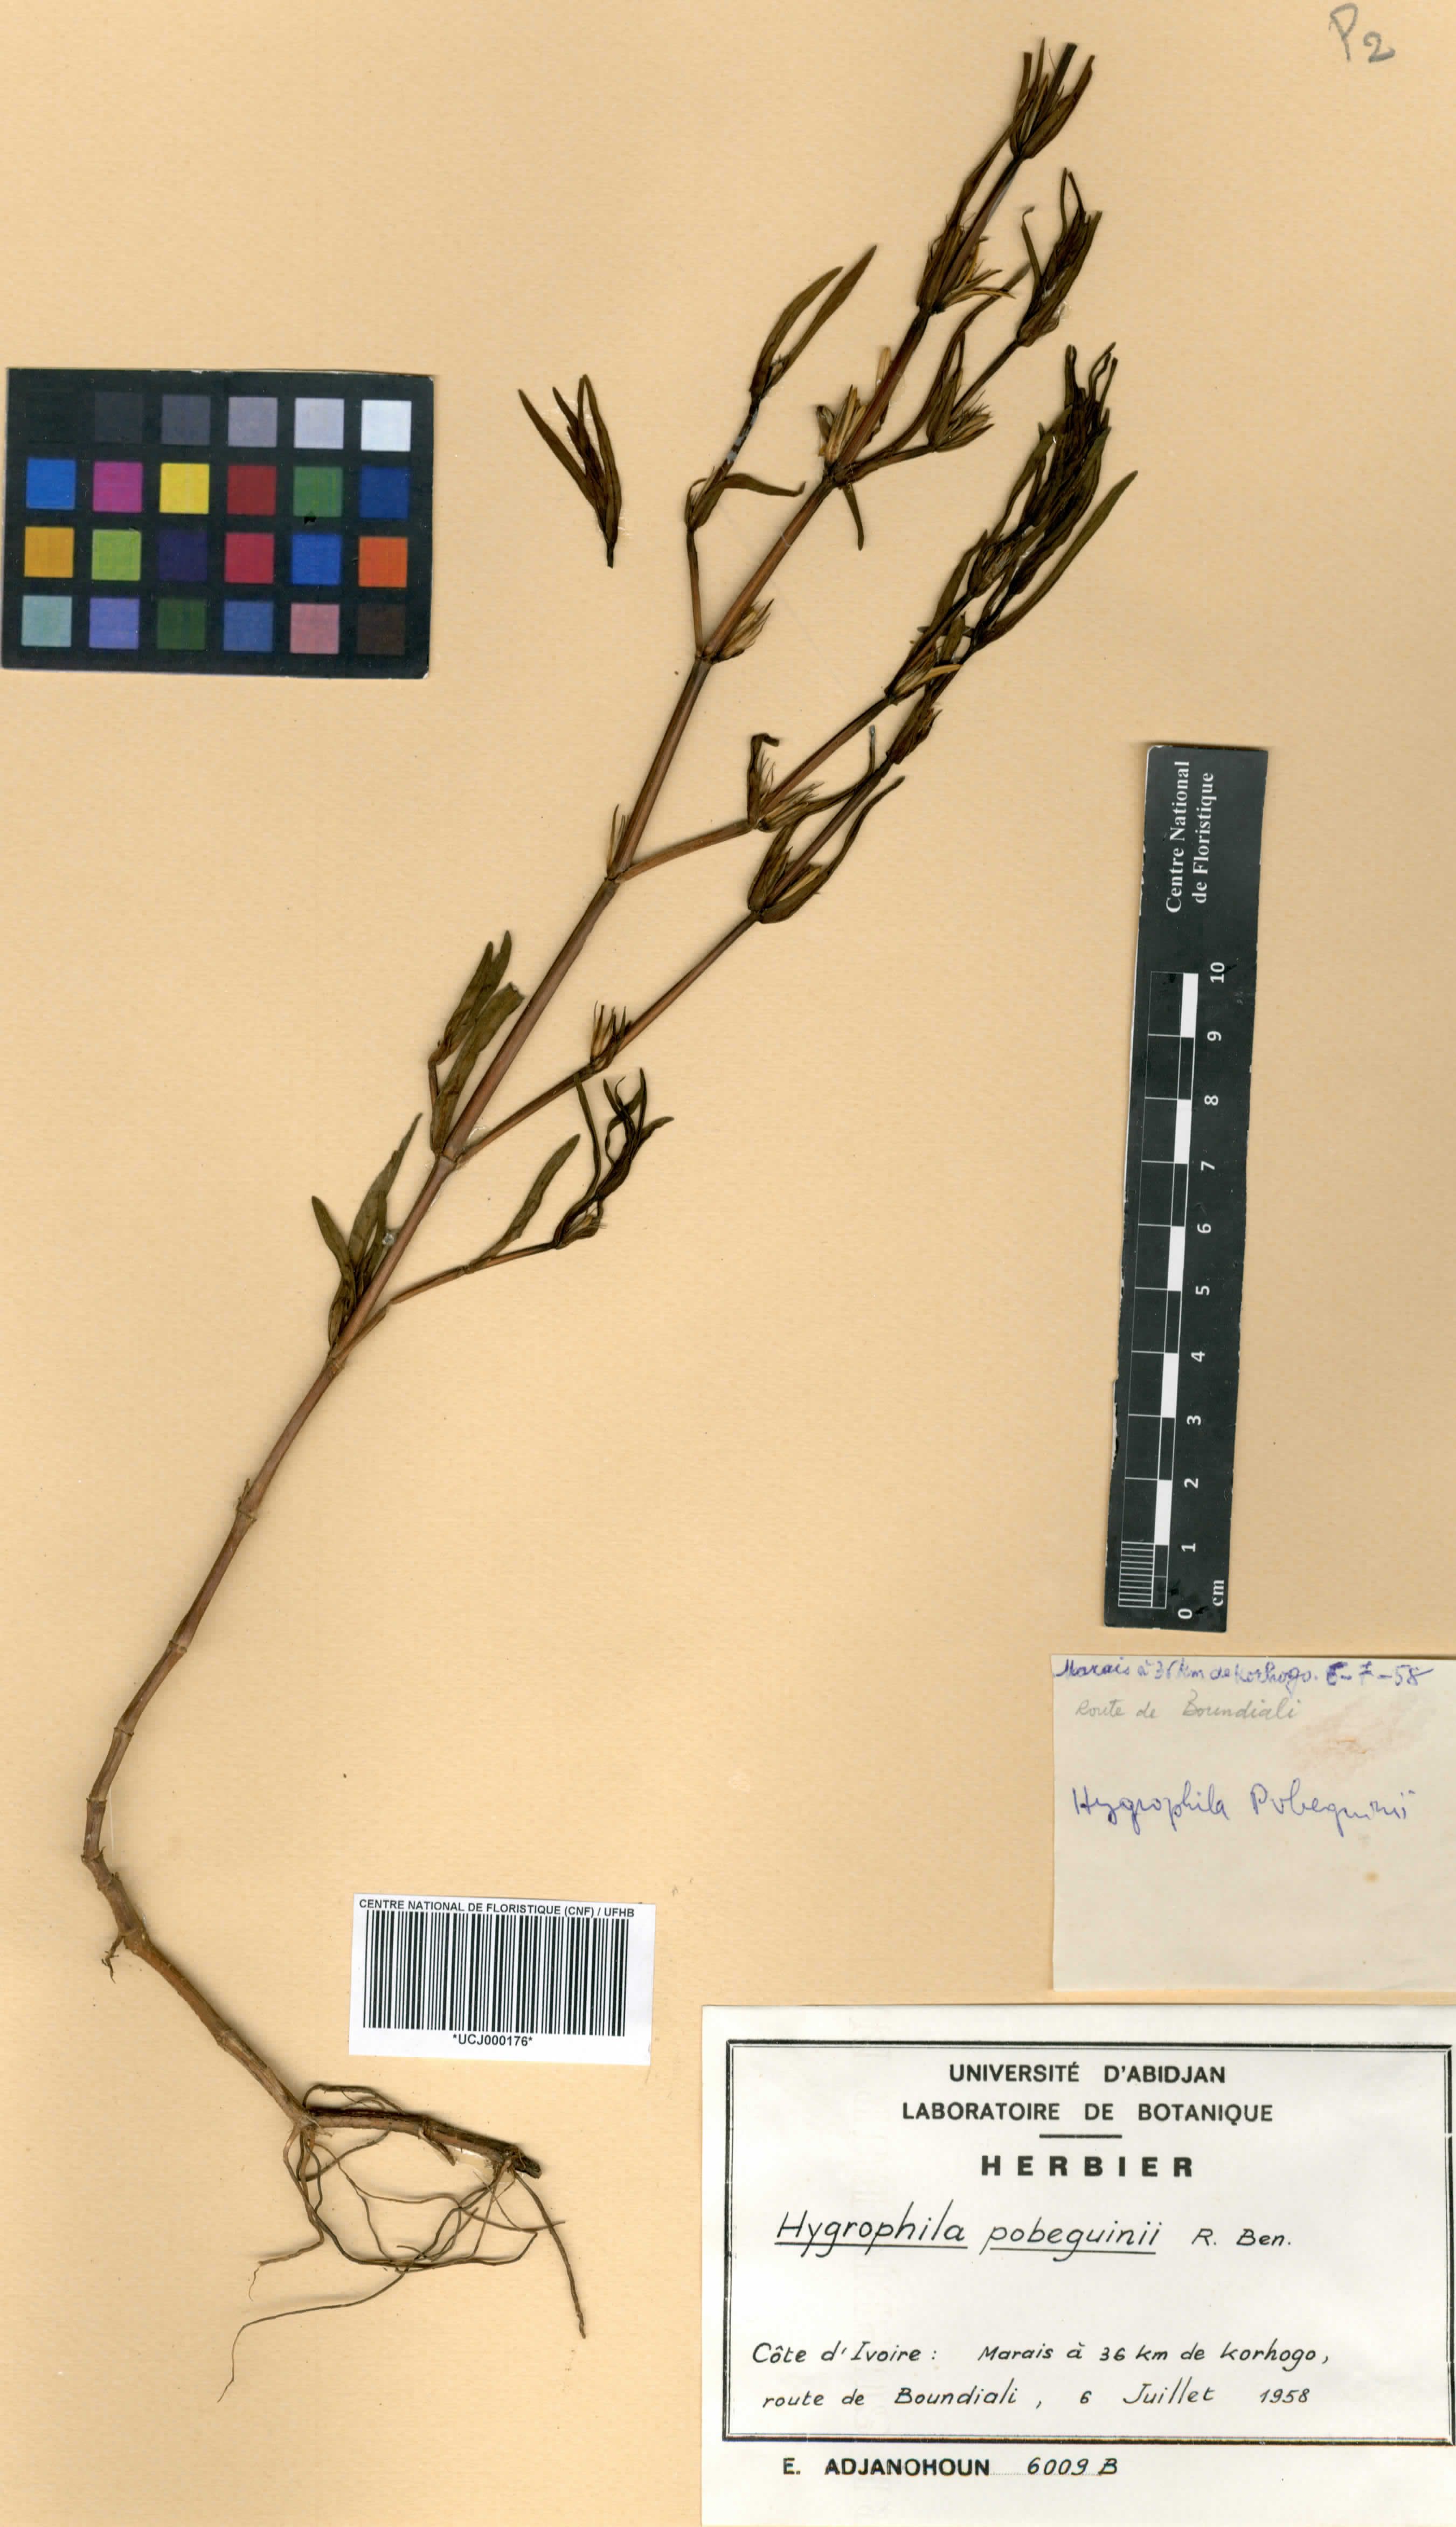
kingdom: Plantae
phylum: Tracheophyta
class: Magnoliopsida
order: Lamiales
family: Acanthaceae
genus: Hygrophila
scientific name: Hygrophila pobeguinii
